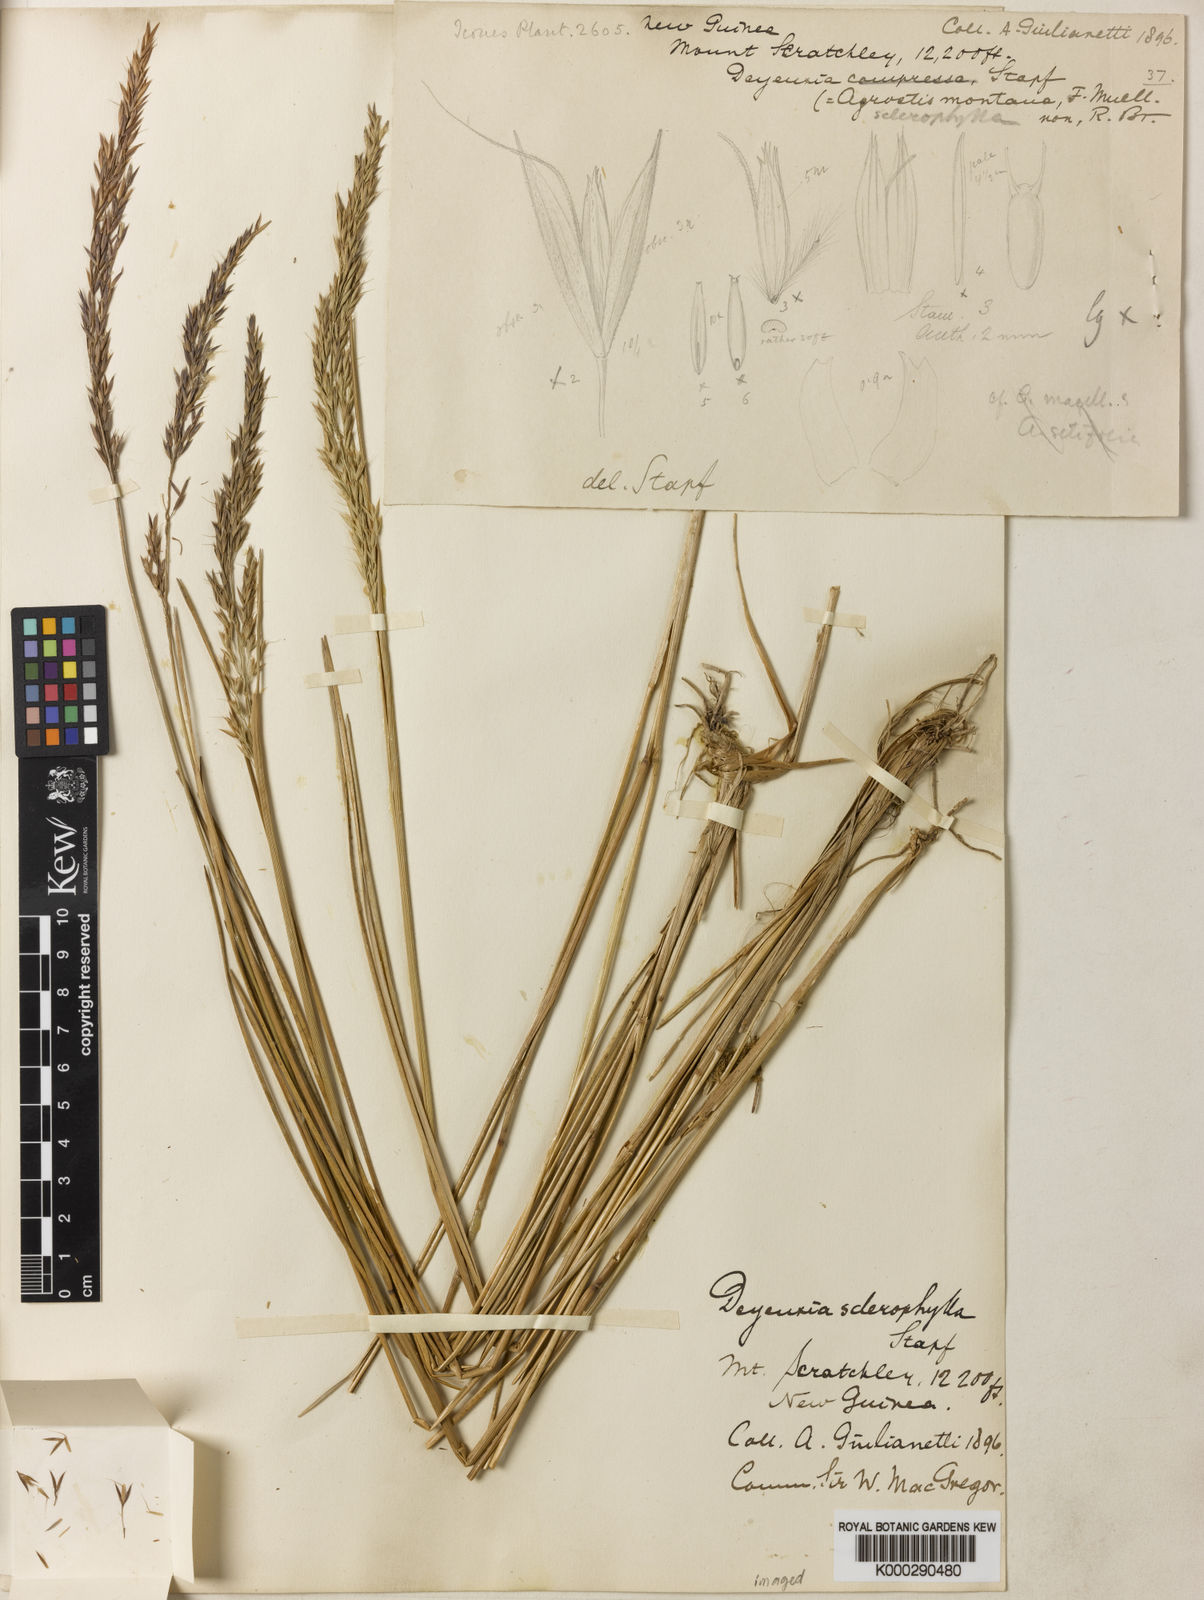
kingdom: Plantae
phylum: Tracheophyta
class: Liliopsida
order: Poales
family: Poaceae
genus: Calamagrostis
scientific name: Calamagrostis sclerophylla
